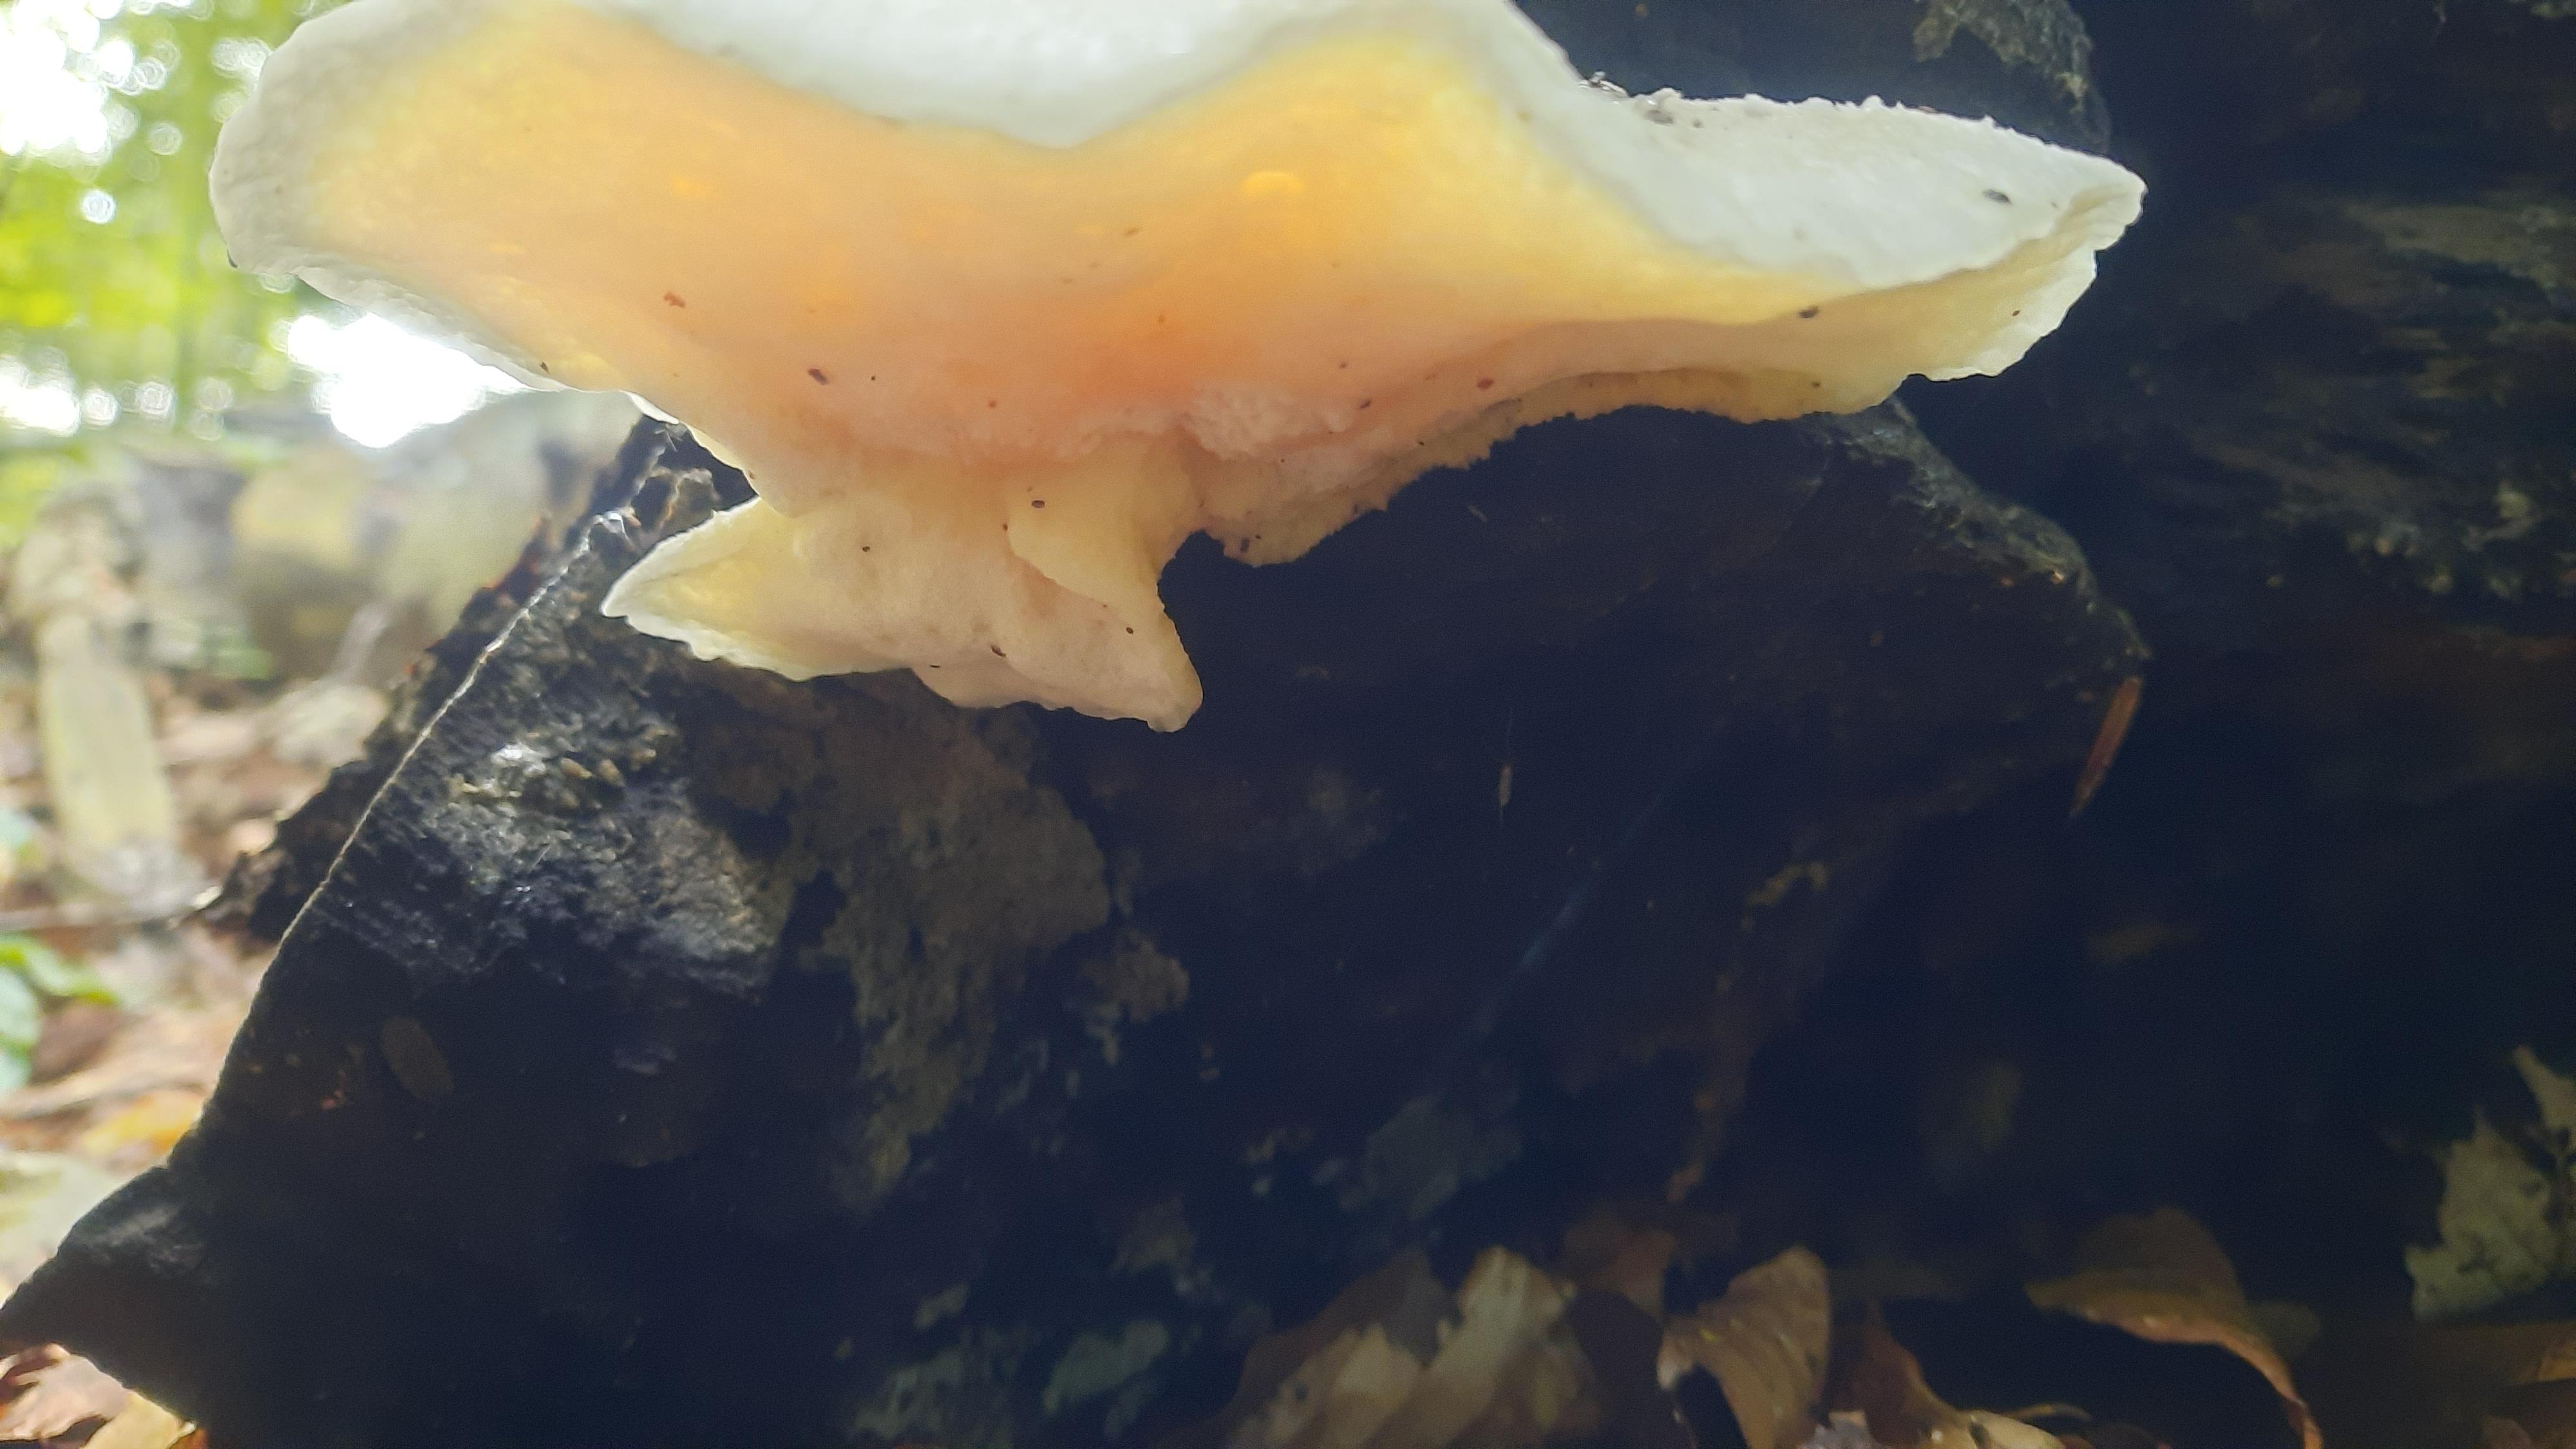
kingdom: Fungi
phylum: Basidiomycota
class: Agaricomycetes
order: Polyporales
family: Fomitopsidaceae
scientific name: Fomitopsidaceae
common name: hovporesvampfamilien
